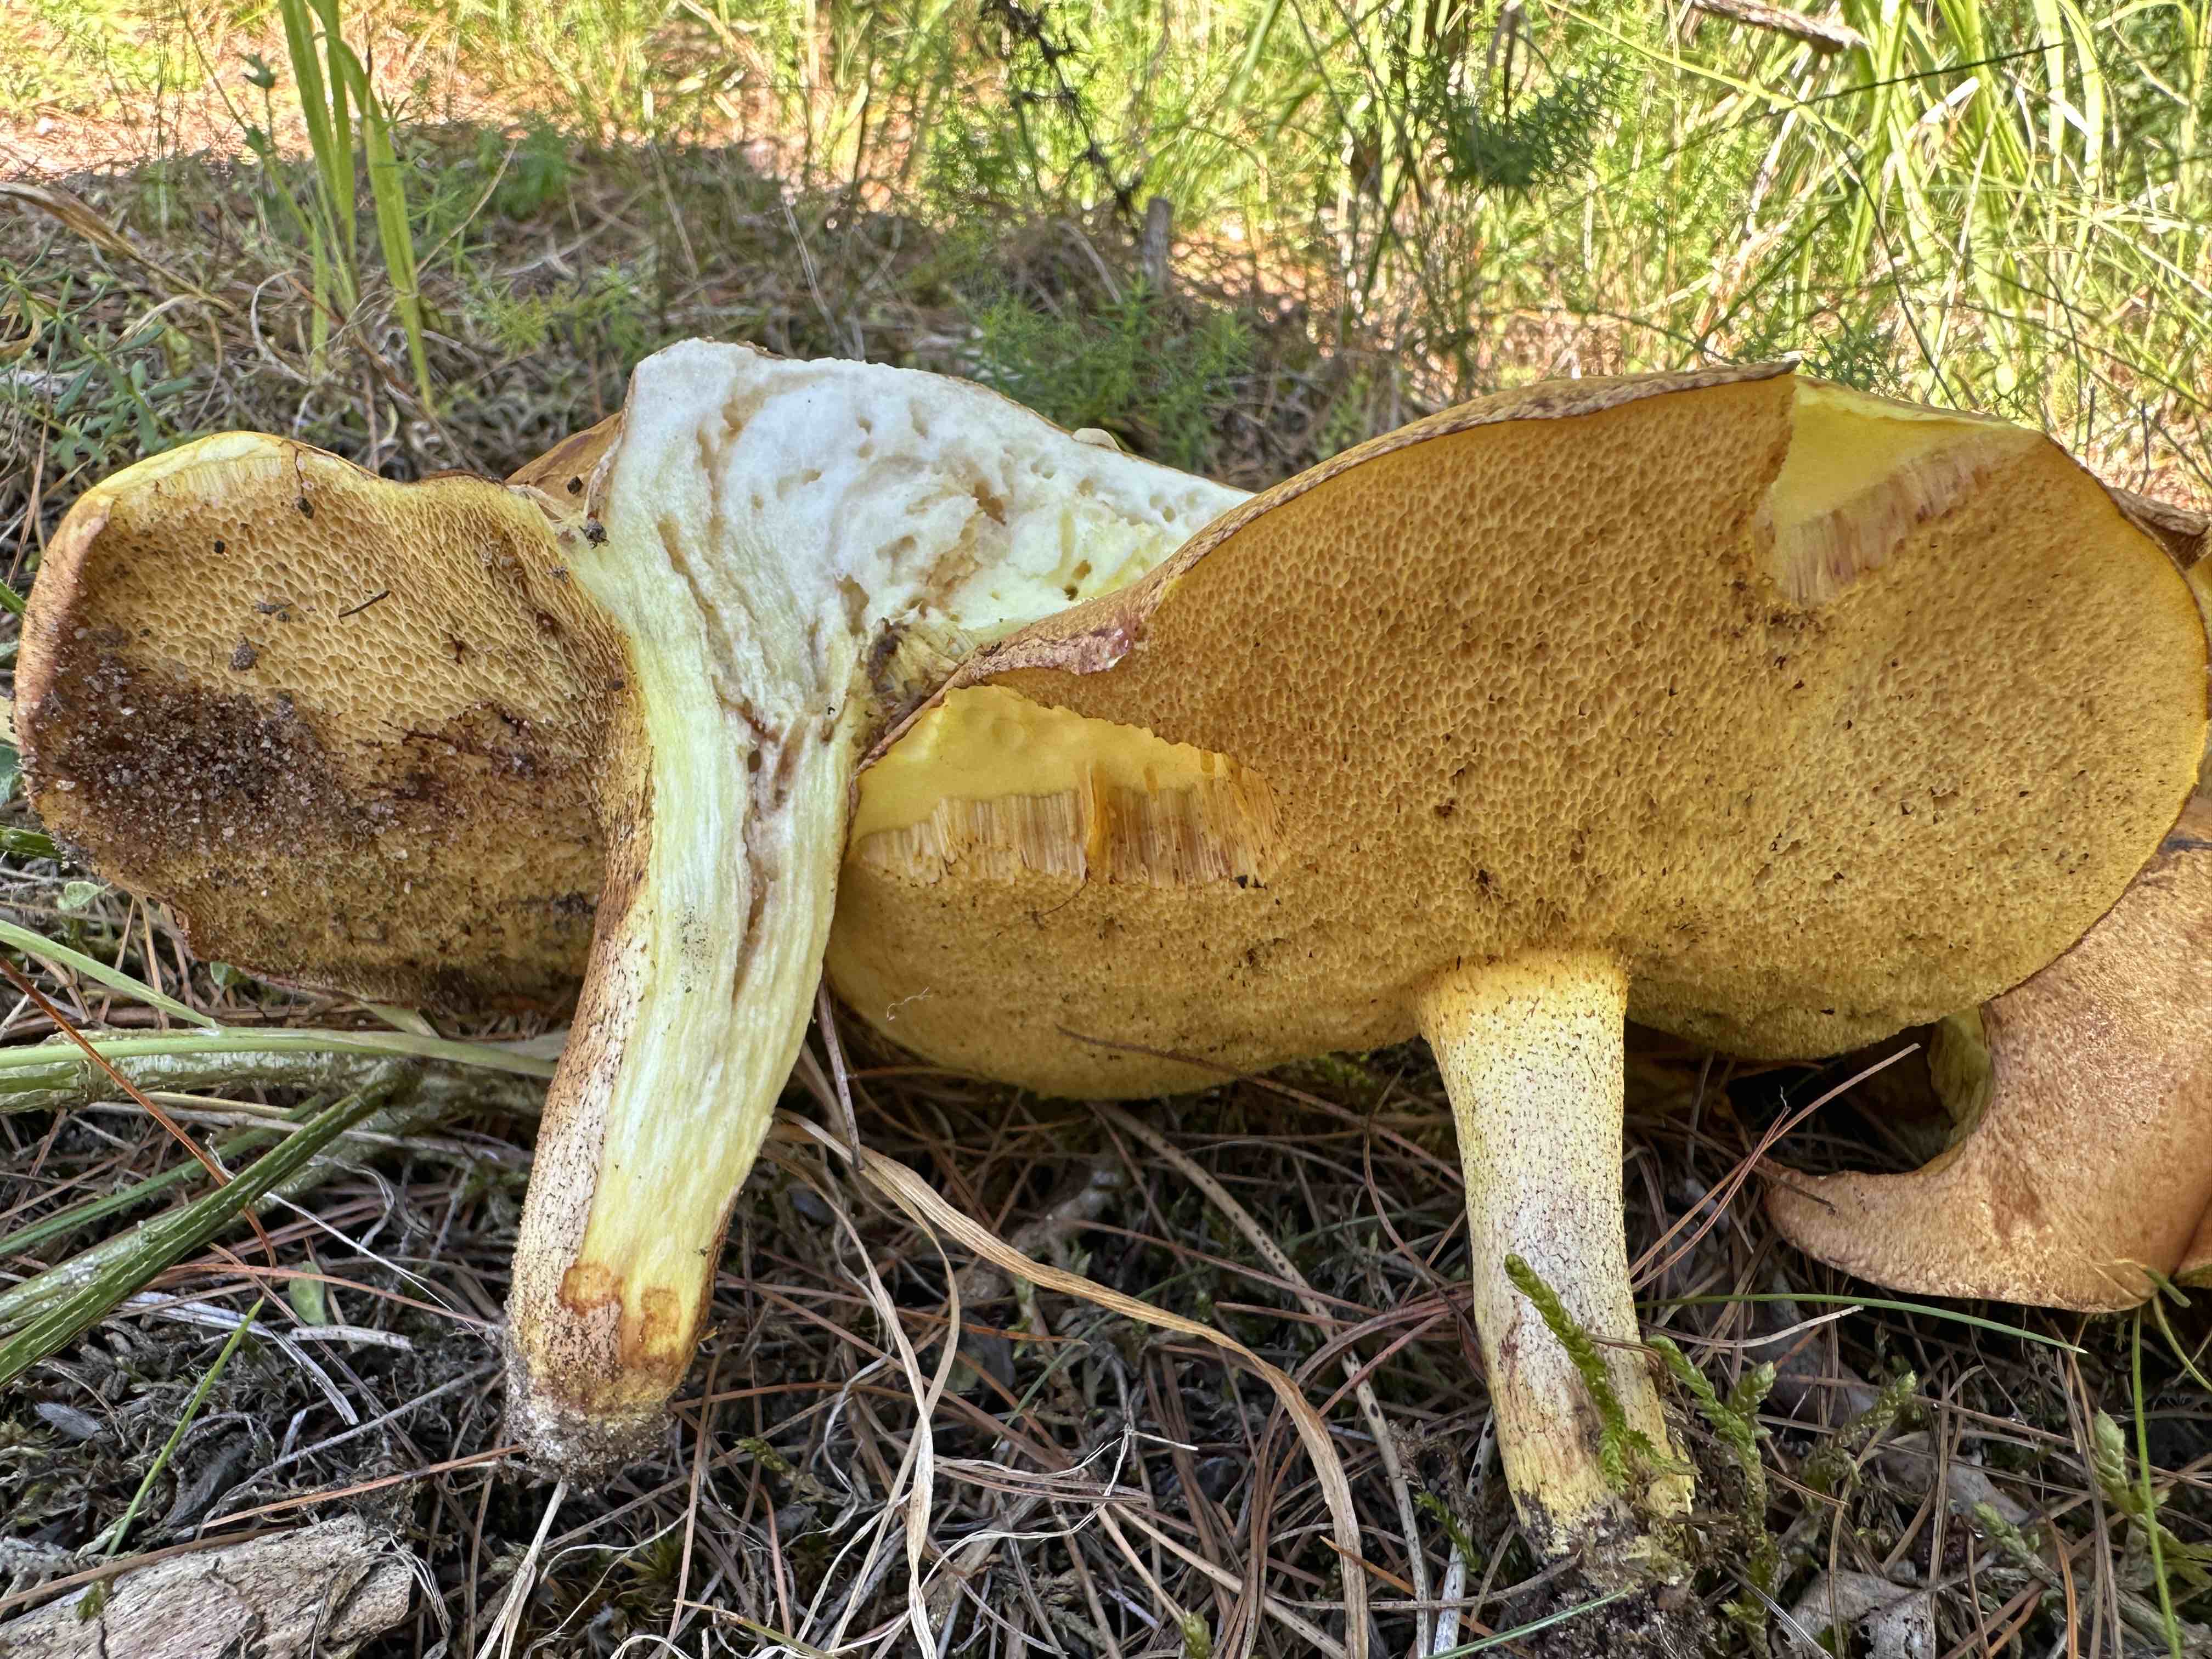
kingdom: Fungi
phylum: Basidiomycota
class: Agaricomycetes
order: Boletales
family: Suillaceae
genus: Suillus
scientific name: Suillus granulatus
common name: kornet slimrørhat
